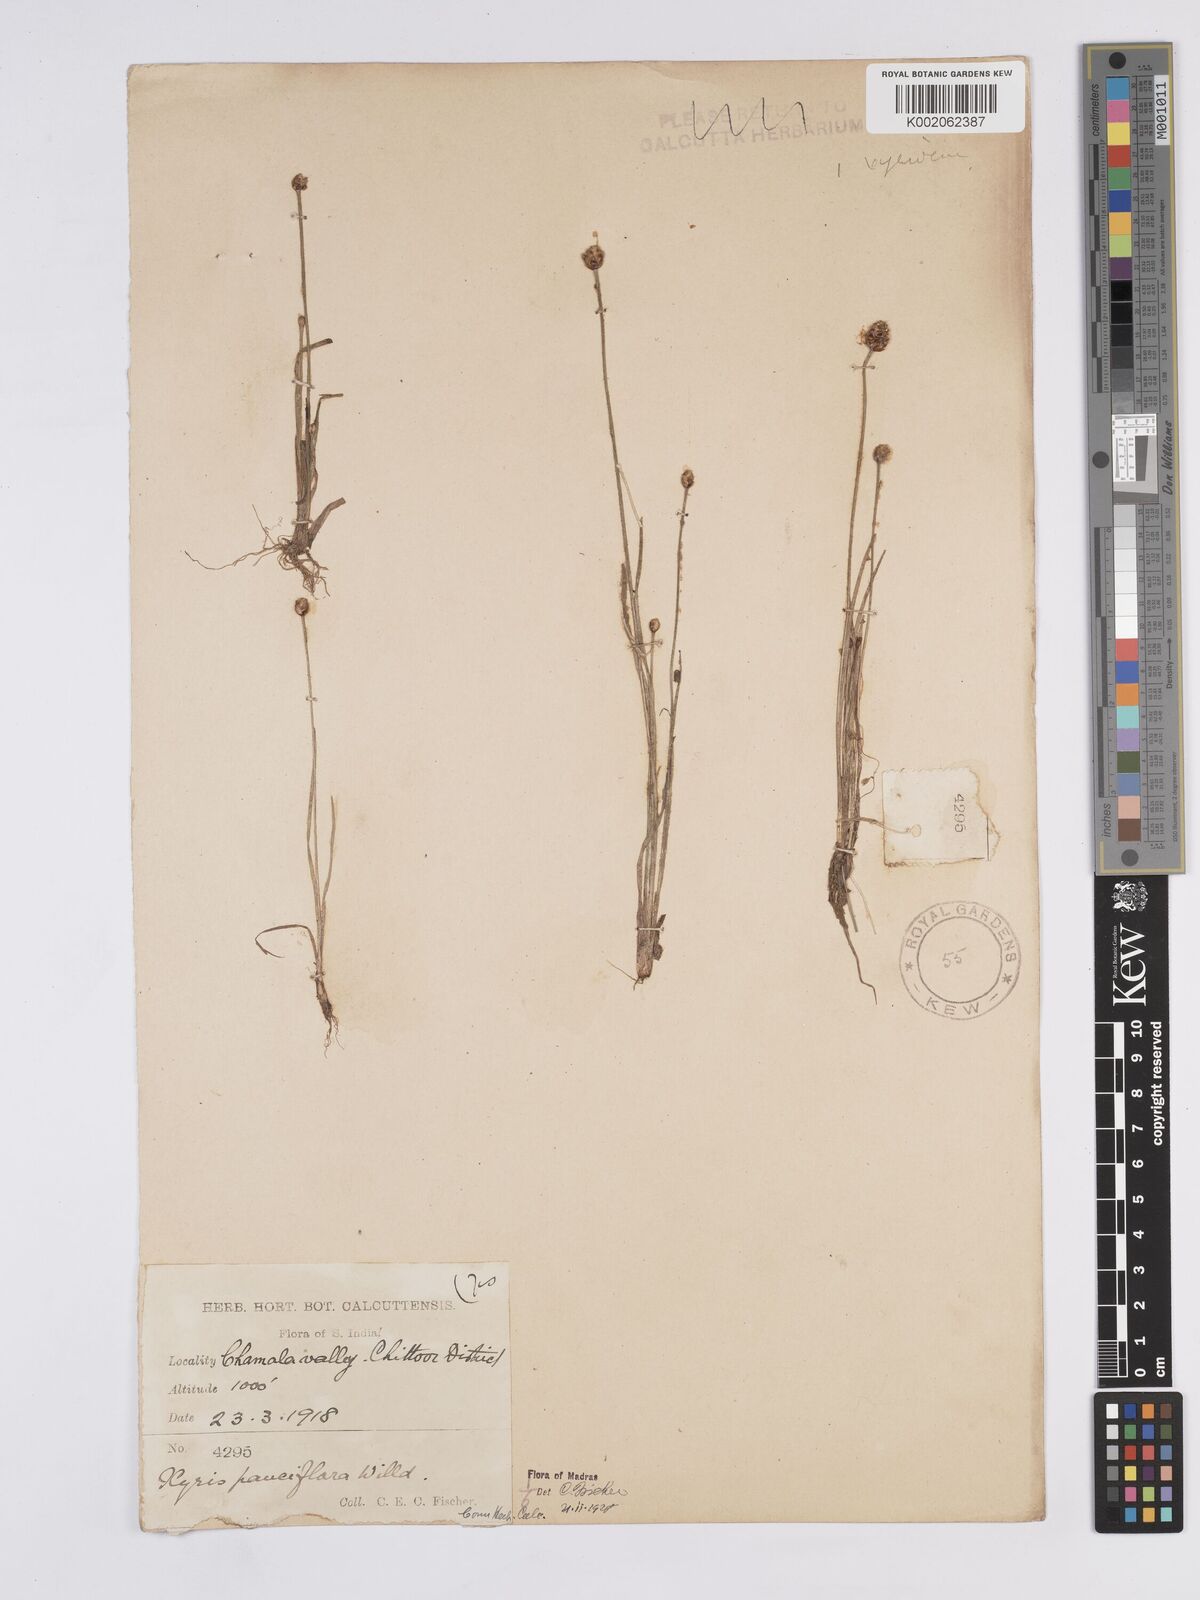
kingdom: Plantae
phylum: Tracheophyta
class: Liliopsida
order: Poales
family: Xyridaceae
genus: Xyris
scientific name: Xyris pauciflora
